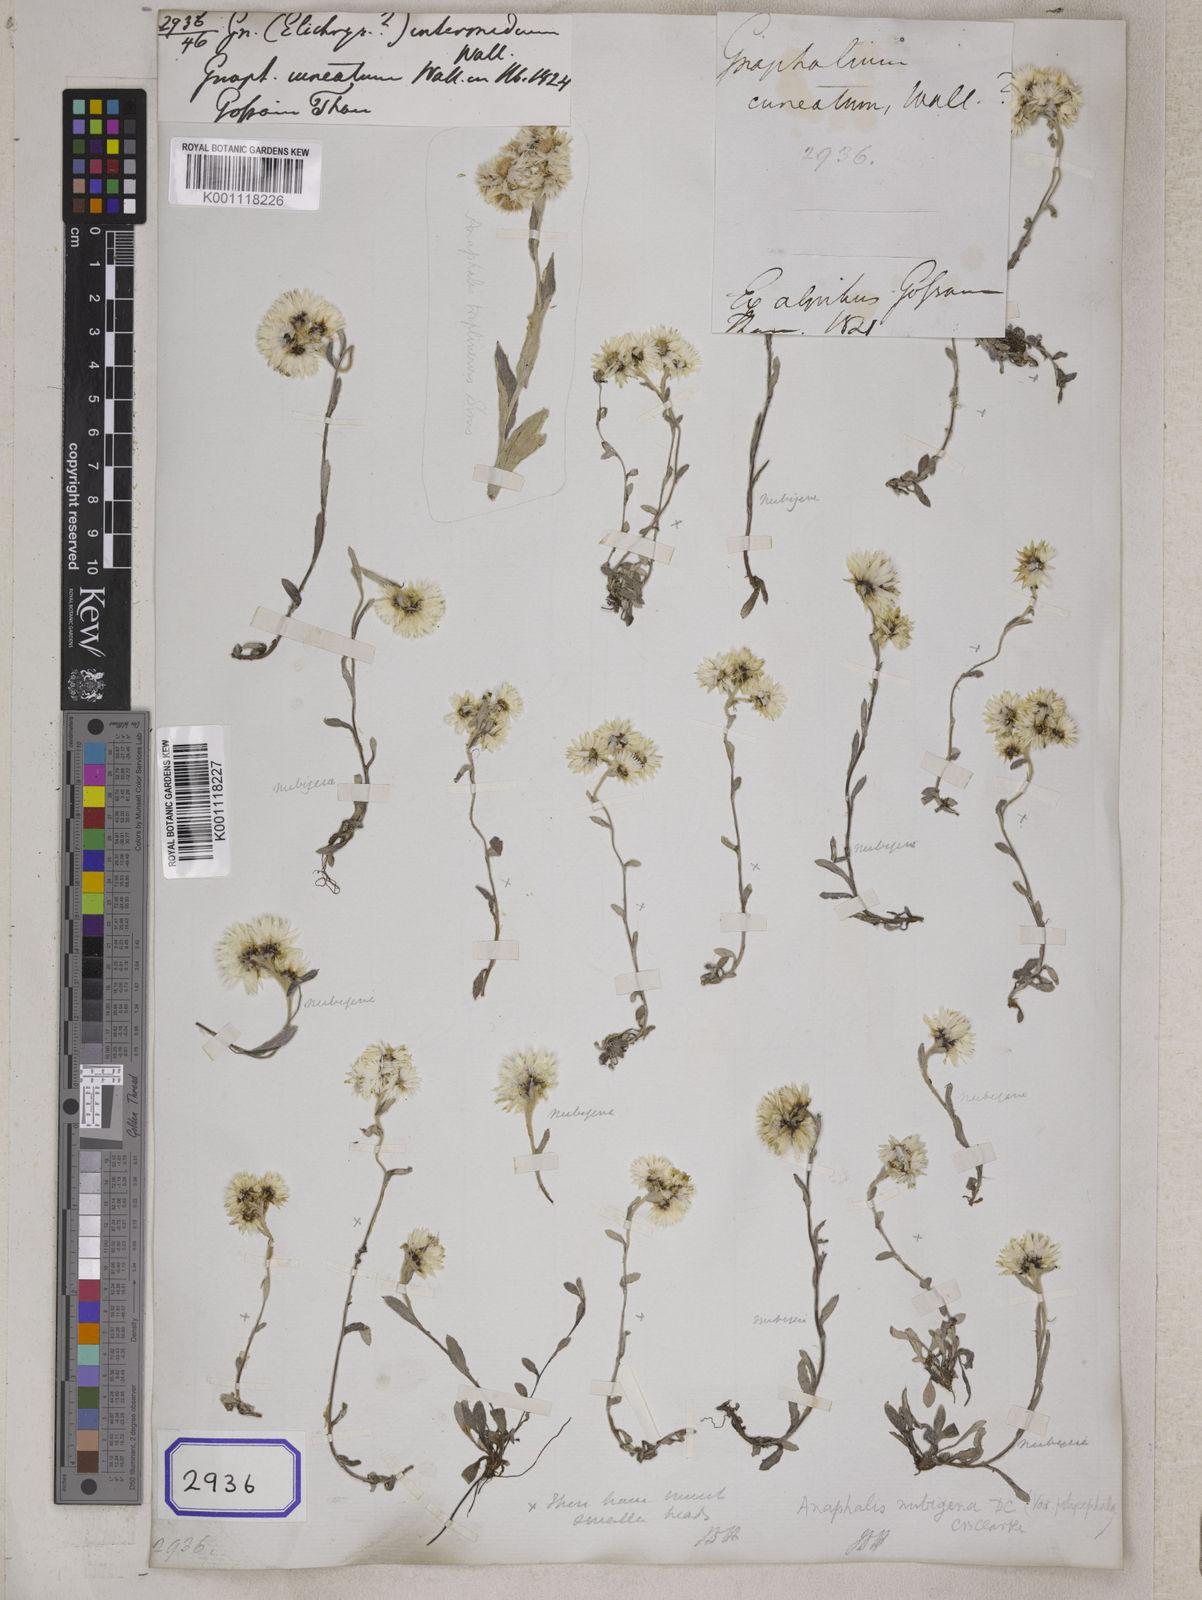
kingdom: Plantae
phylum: Tracheophyta
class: Magnoliopsida
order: Asterales
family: Asteraceae
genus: Anaphalis
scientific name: Anaphalis nepalensis
